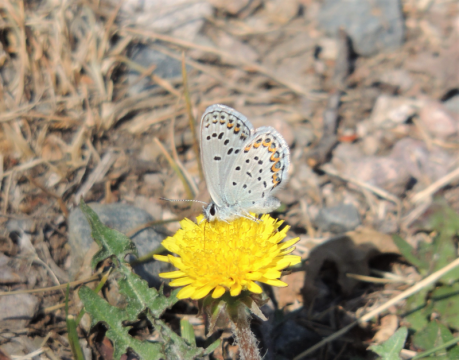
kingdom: Animalia
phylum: Arthropoda
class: Insecta
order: Lepidoptera
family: Lycaenidae
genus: Lycaeides
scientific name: Lycaeides melissa
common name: Melissa Blue
